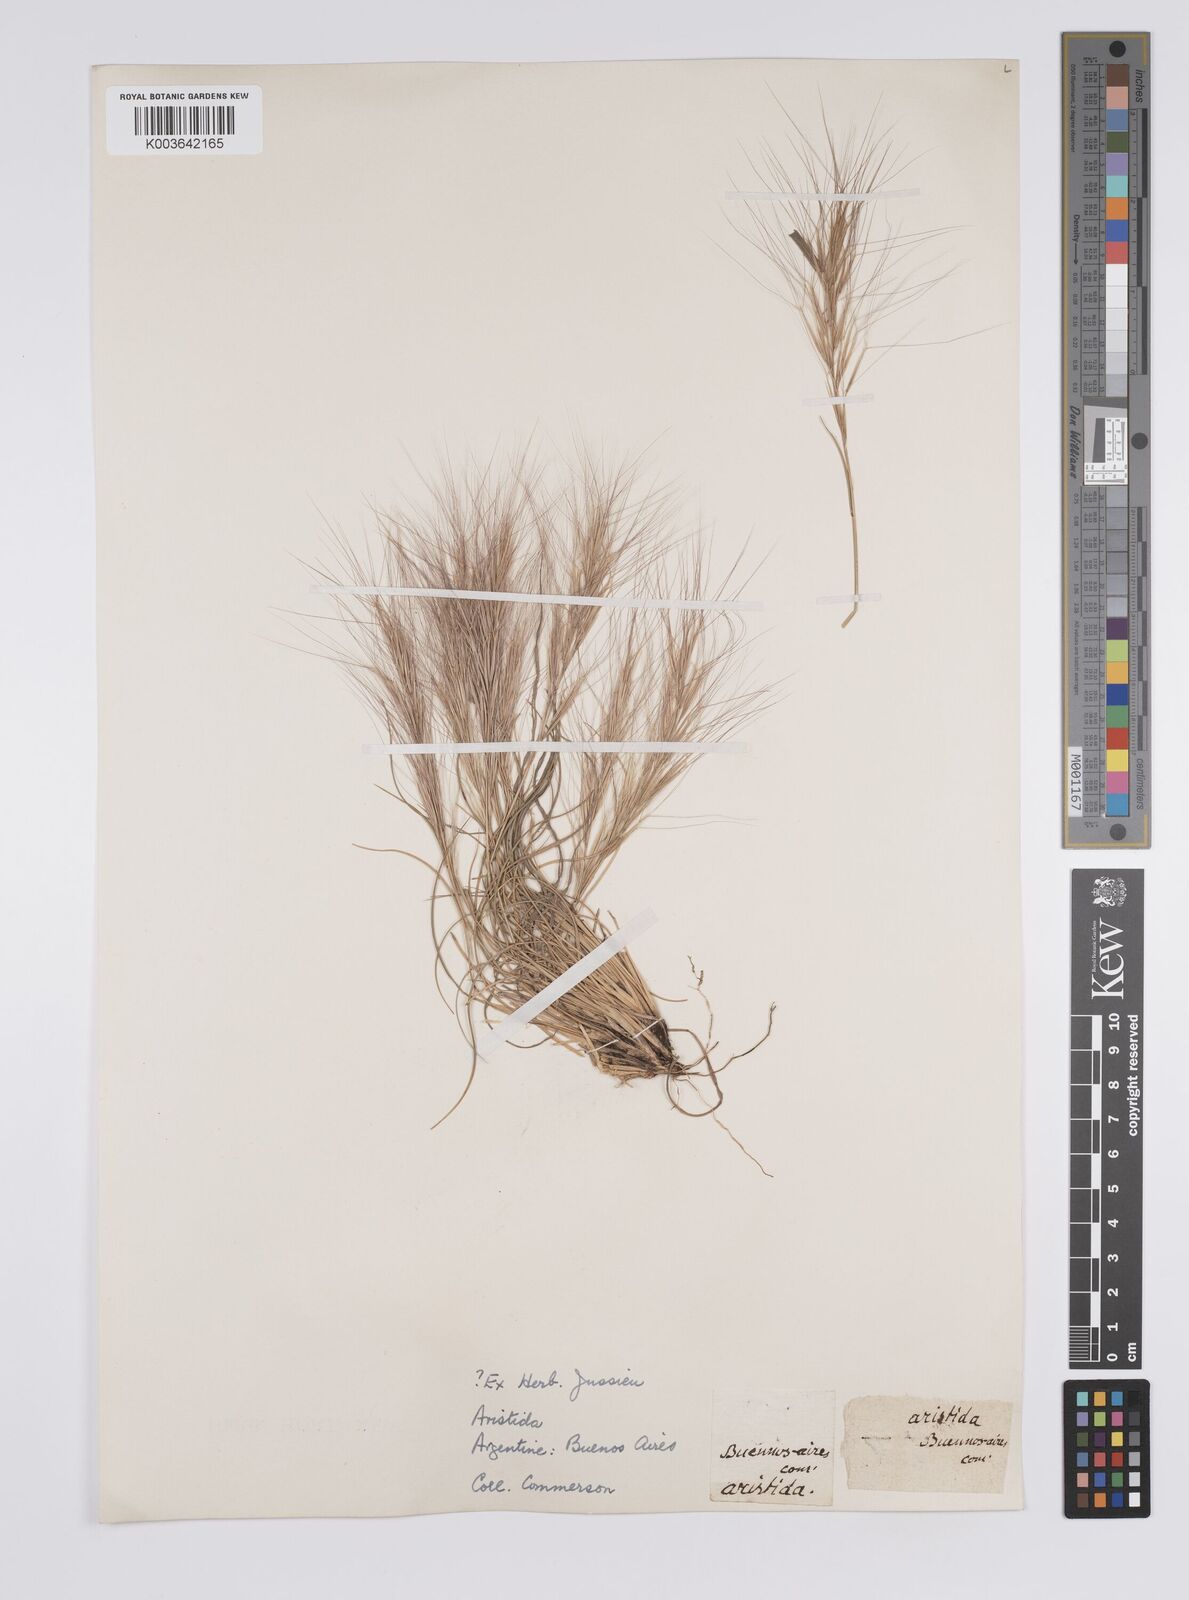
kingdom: Plantae
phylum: Tracheophyta
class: Liliopsida
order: Poales
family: Poaceae
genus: Aristida
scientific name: Aristida
